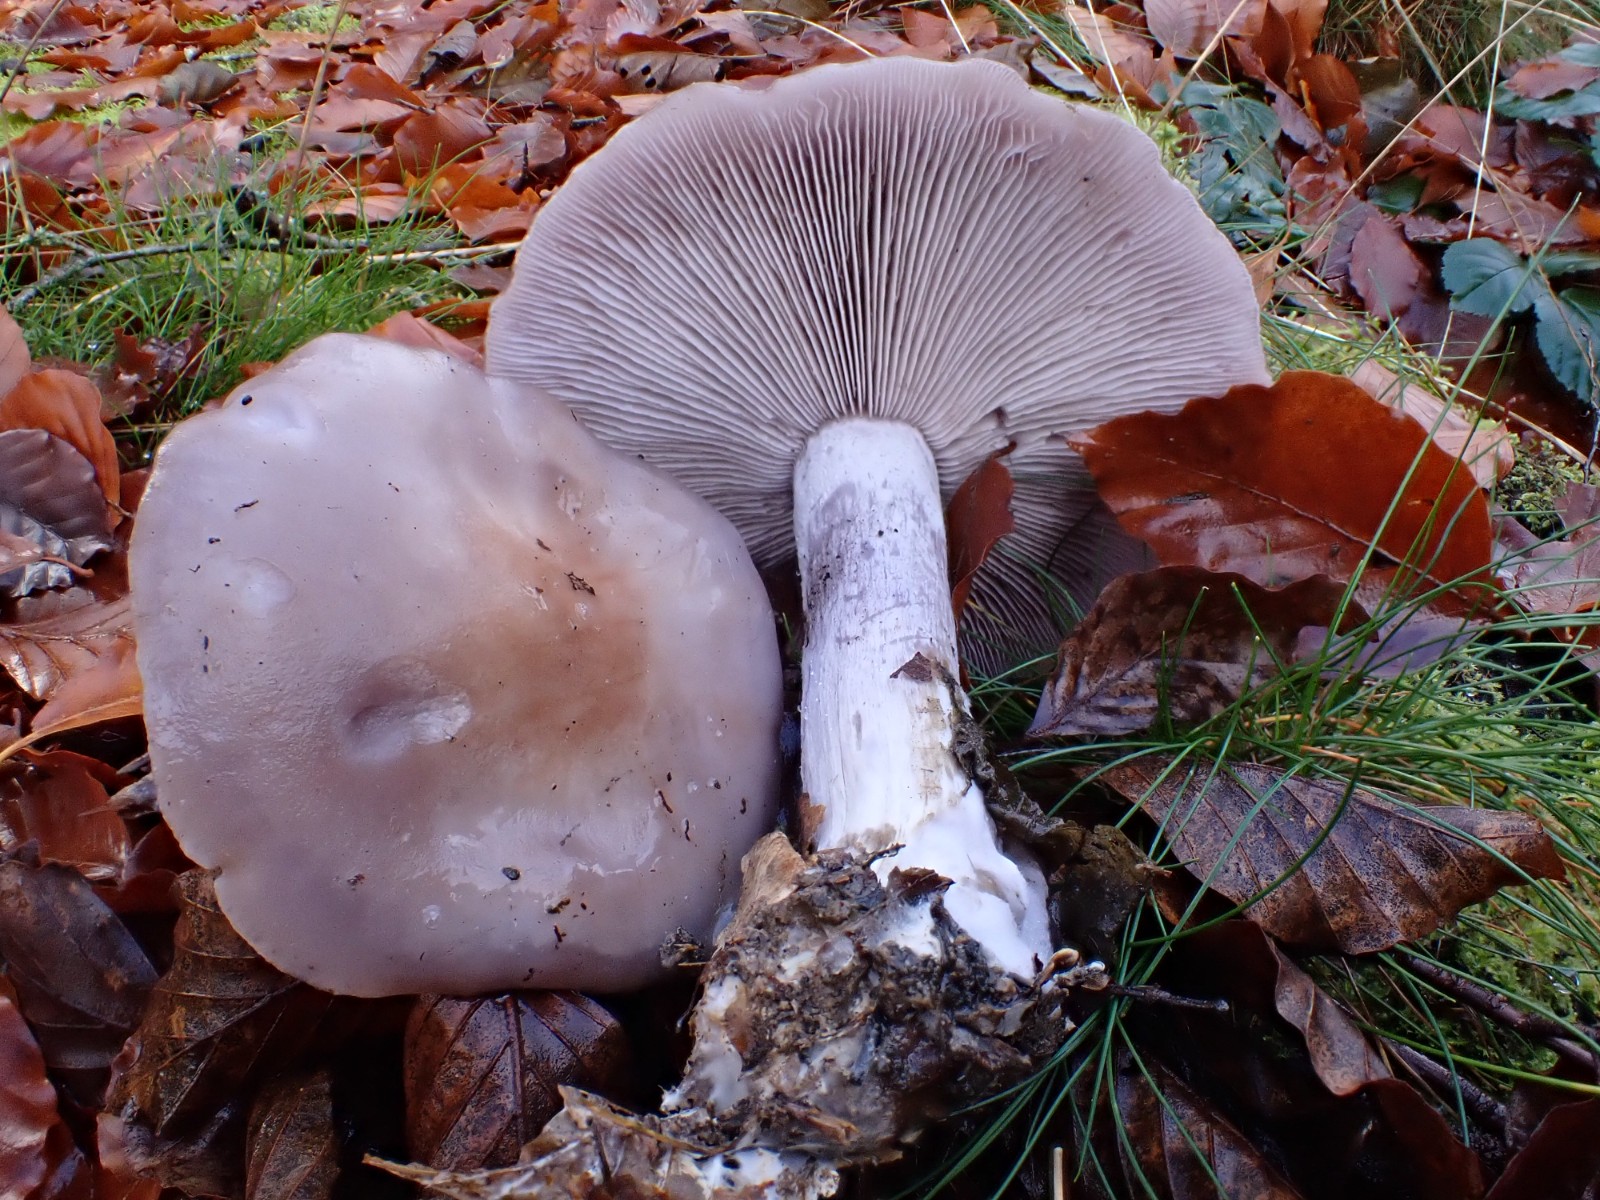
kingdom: Fungi
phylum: Basidiomycota
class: Agaricomycetes
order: Agaricales
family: Tricholomataceae
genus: Lepista
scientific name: Lepista nuda
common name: violet hekseringshat
